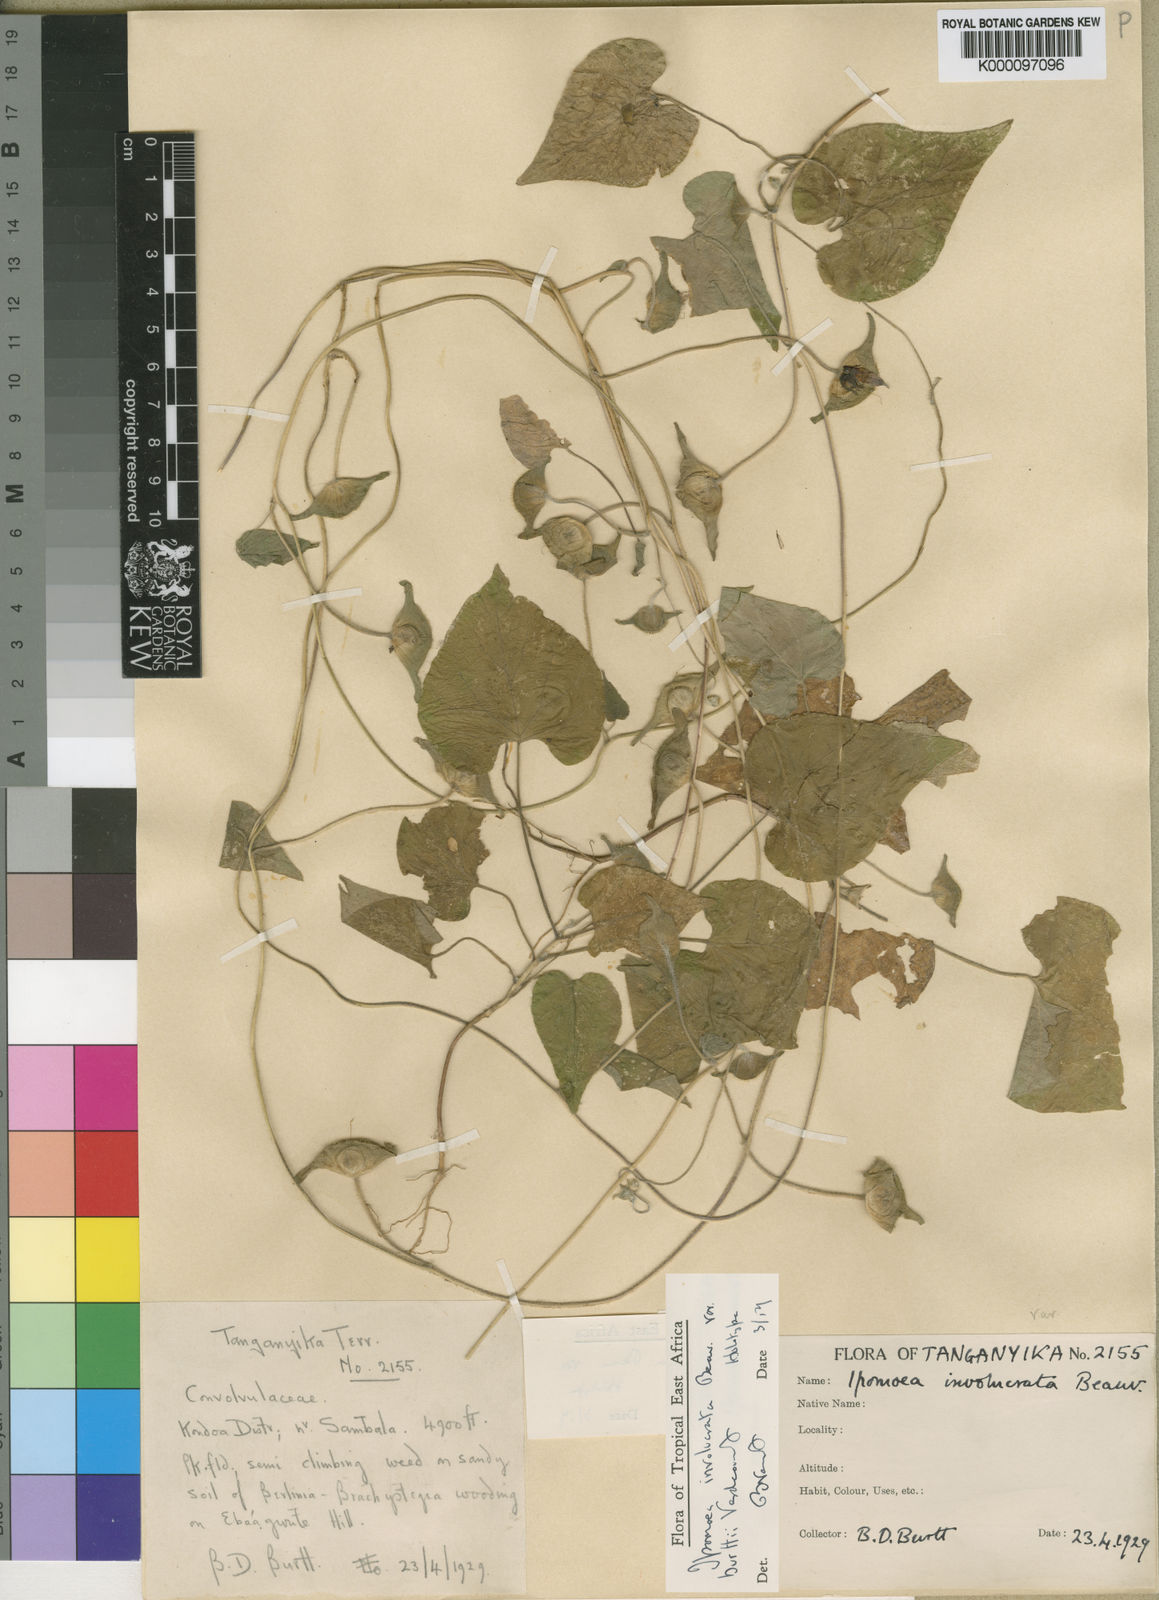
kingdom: Plantae
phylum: Tracheophyta
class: Magnoliopsida
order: Solanales
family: Convolvulaceae
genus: Ipomoea
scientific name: Ipomoea involucrata
